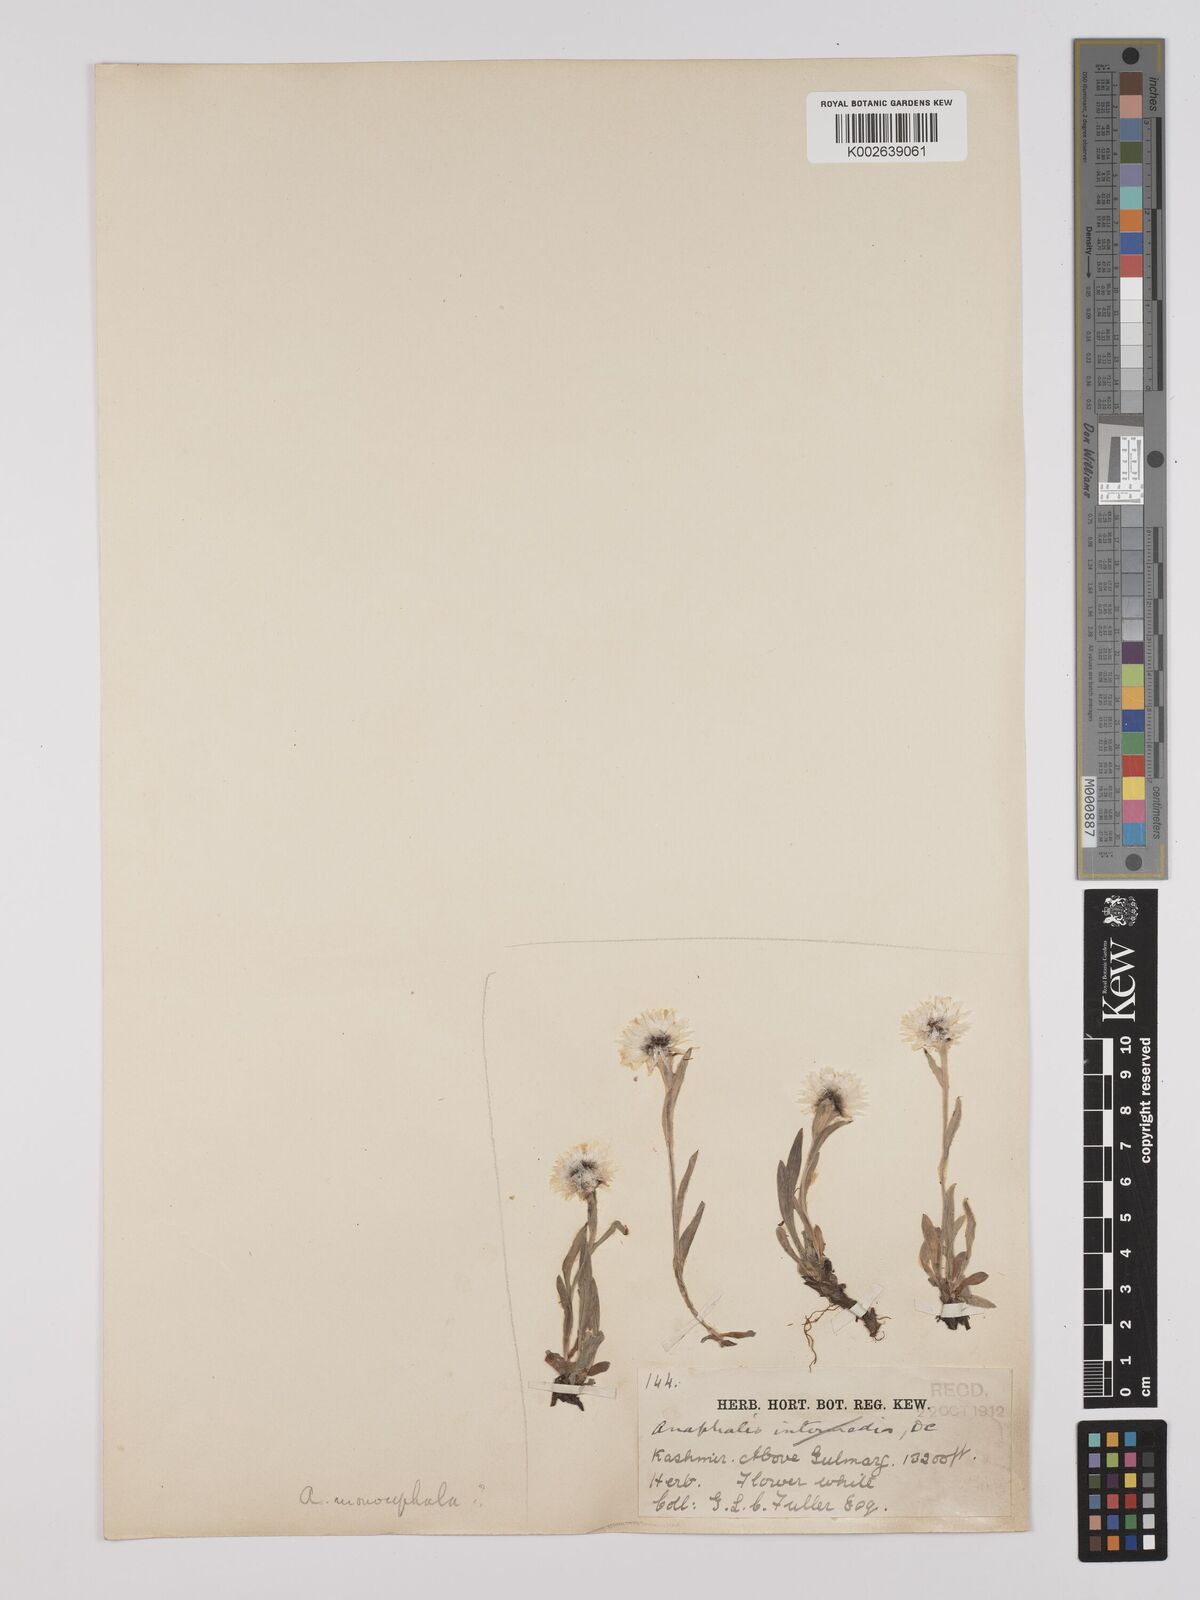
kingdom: Plantae
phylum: Tracheophyta
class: Magnoliopsida
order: Asterales
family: Asteraceae
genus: Anaphalis
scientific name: Anaphalis nepalensis
